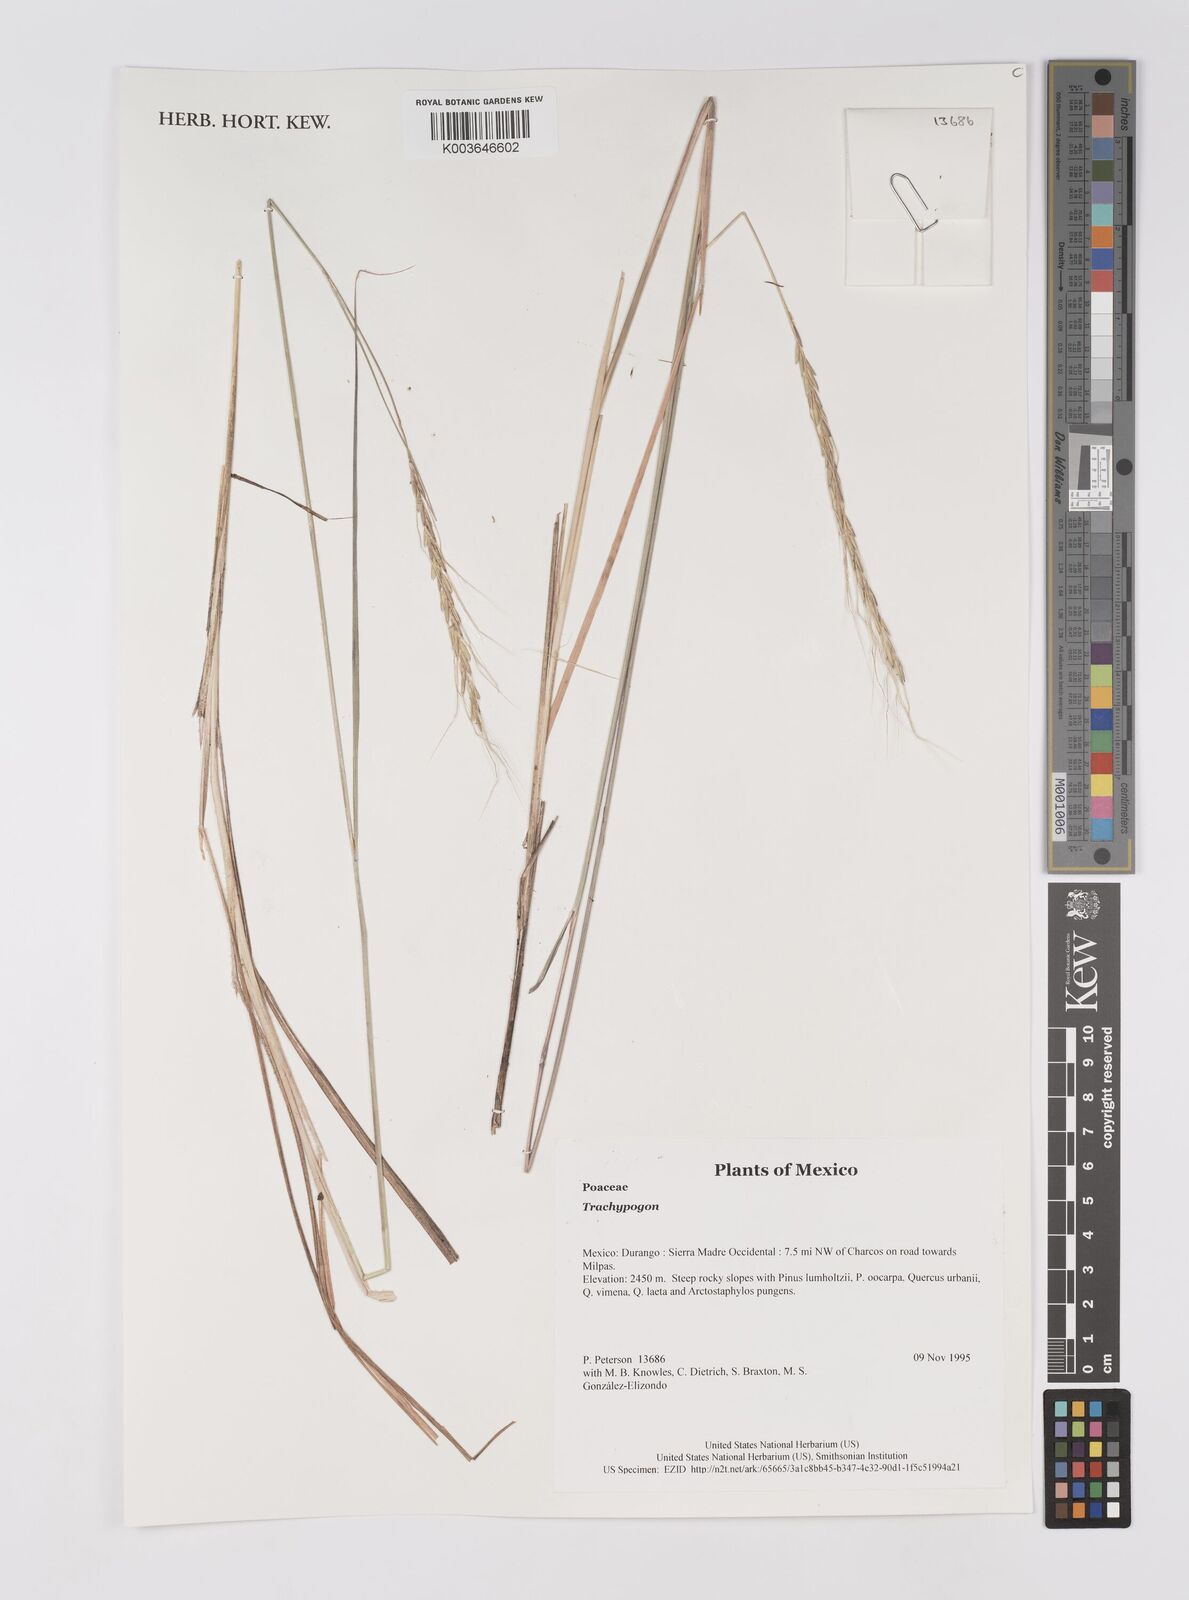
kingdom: Plantae
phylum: Tracheophyta
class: Liliopsida
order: Poales
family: Poaceae
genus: Trachypogon
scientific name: Trachypogon
